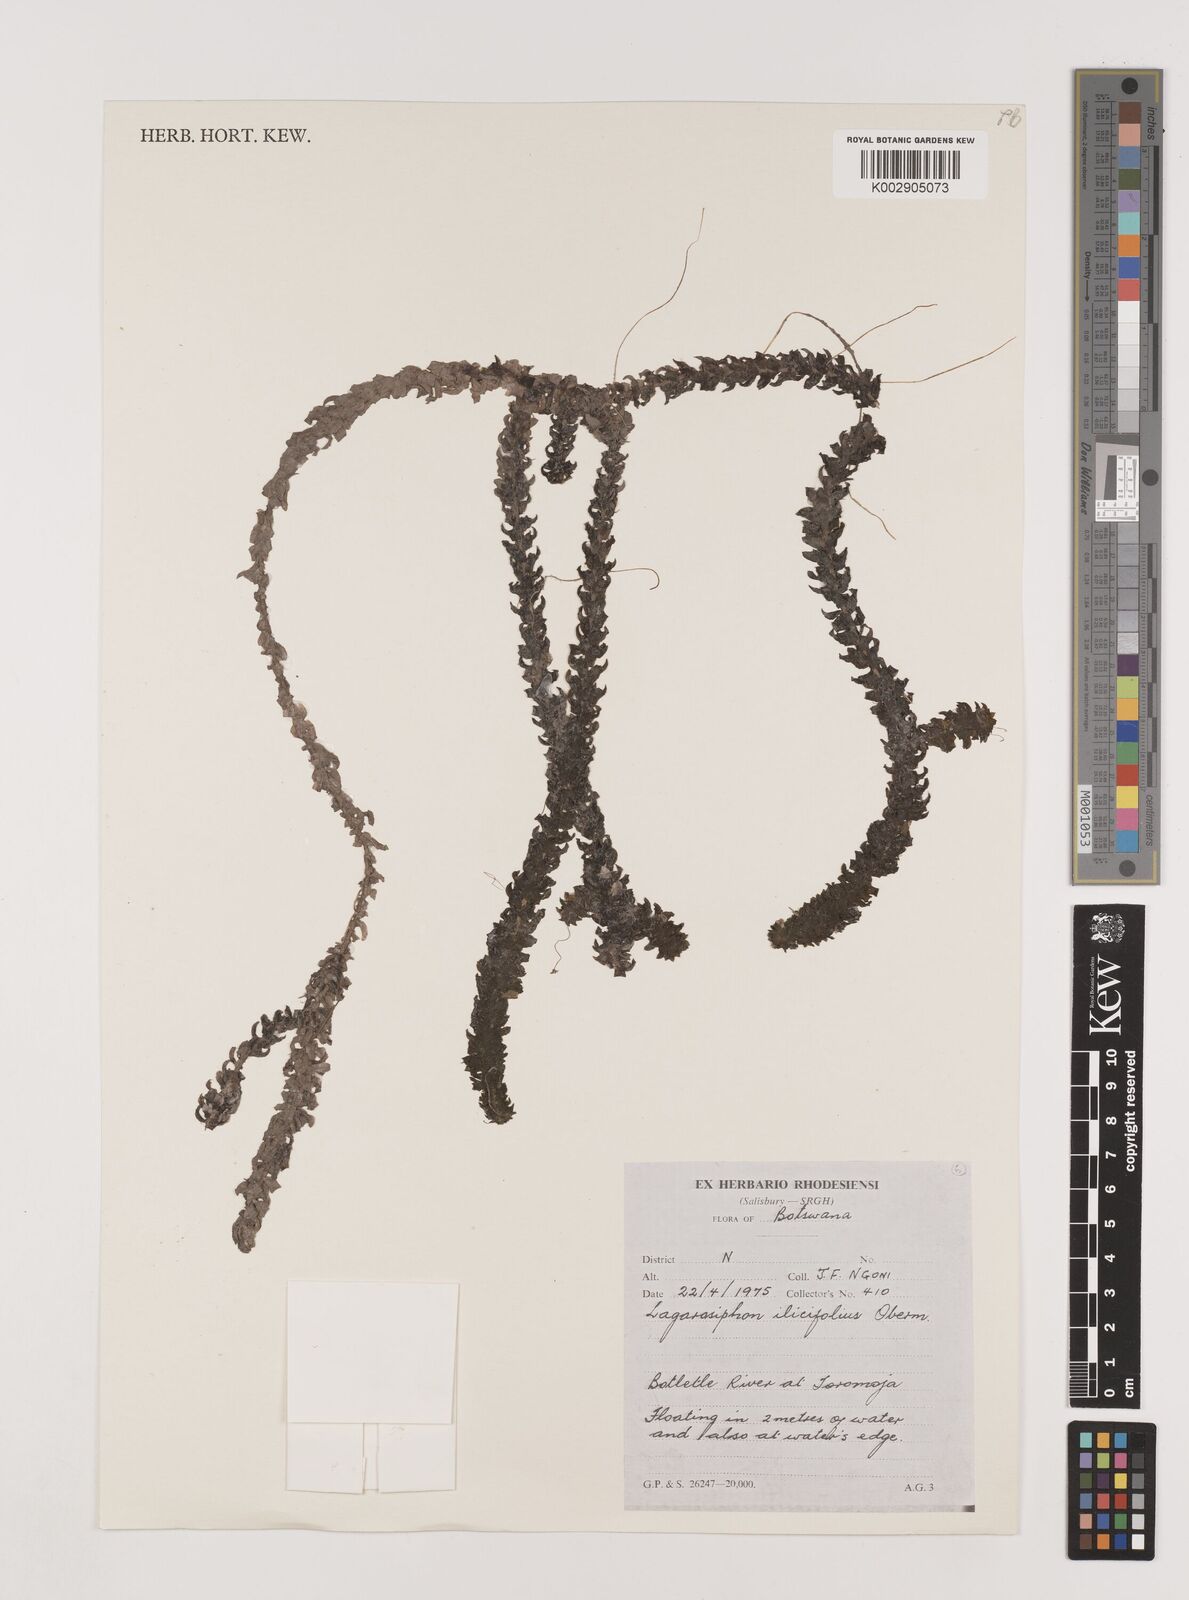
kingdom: Plantae
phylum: Tracheophyta
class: Liliopsida
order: Alismatales
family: Hydrocharitaceae
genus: Lagarosiphon
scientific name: Lagarosiphon ilicifolius
